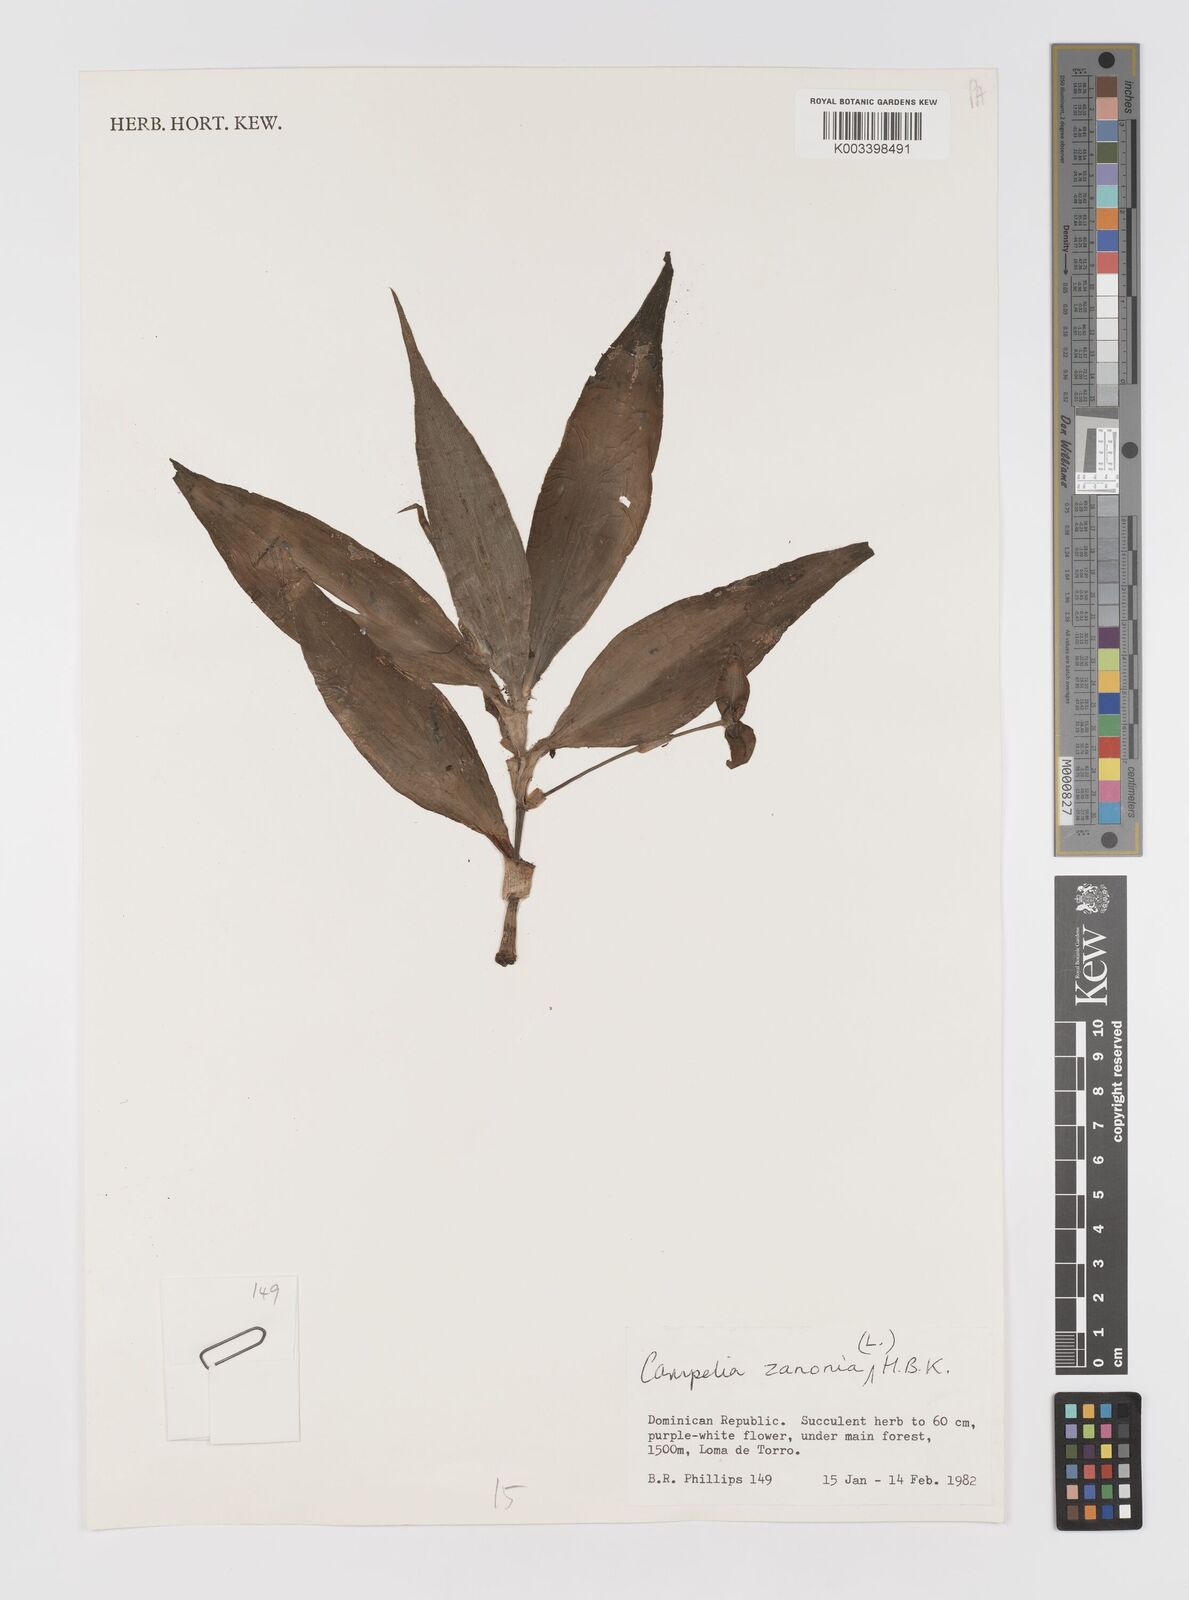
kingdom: Plantae
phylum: Tracheophyta
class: Liliopsida
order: Commelinales
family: Commelinaceae
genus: Tradescantia
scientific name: Tradescantia zanonia
